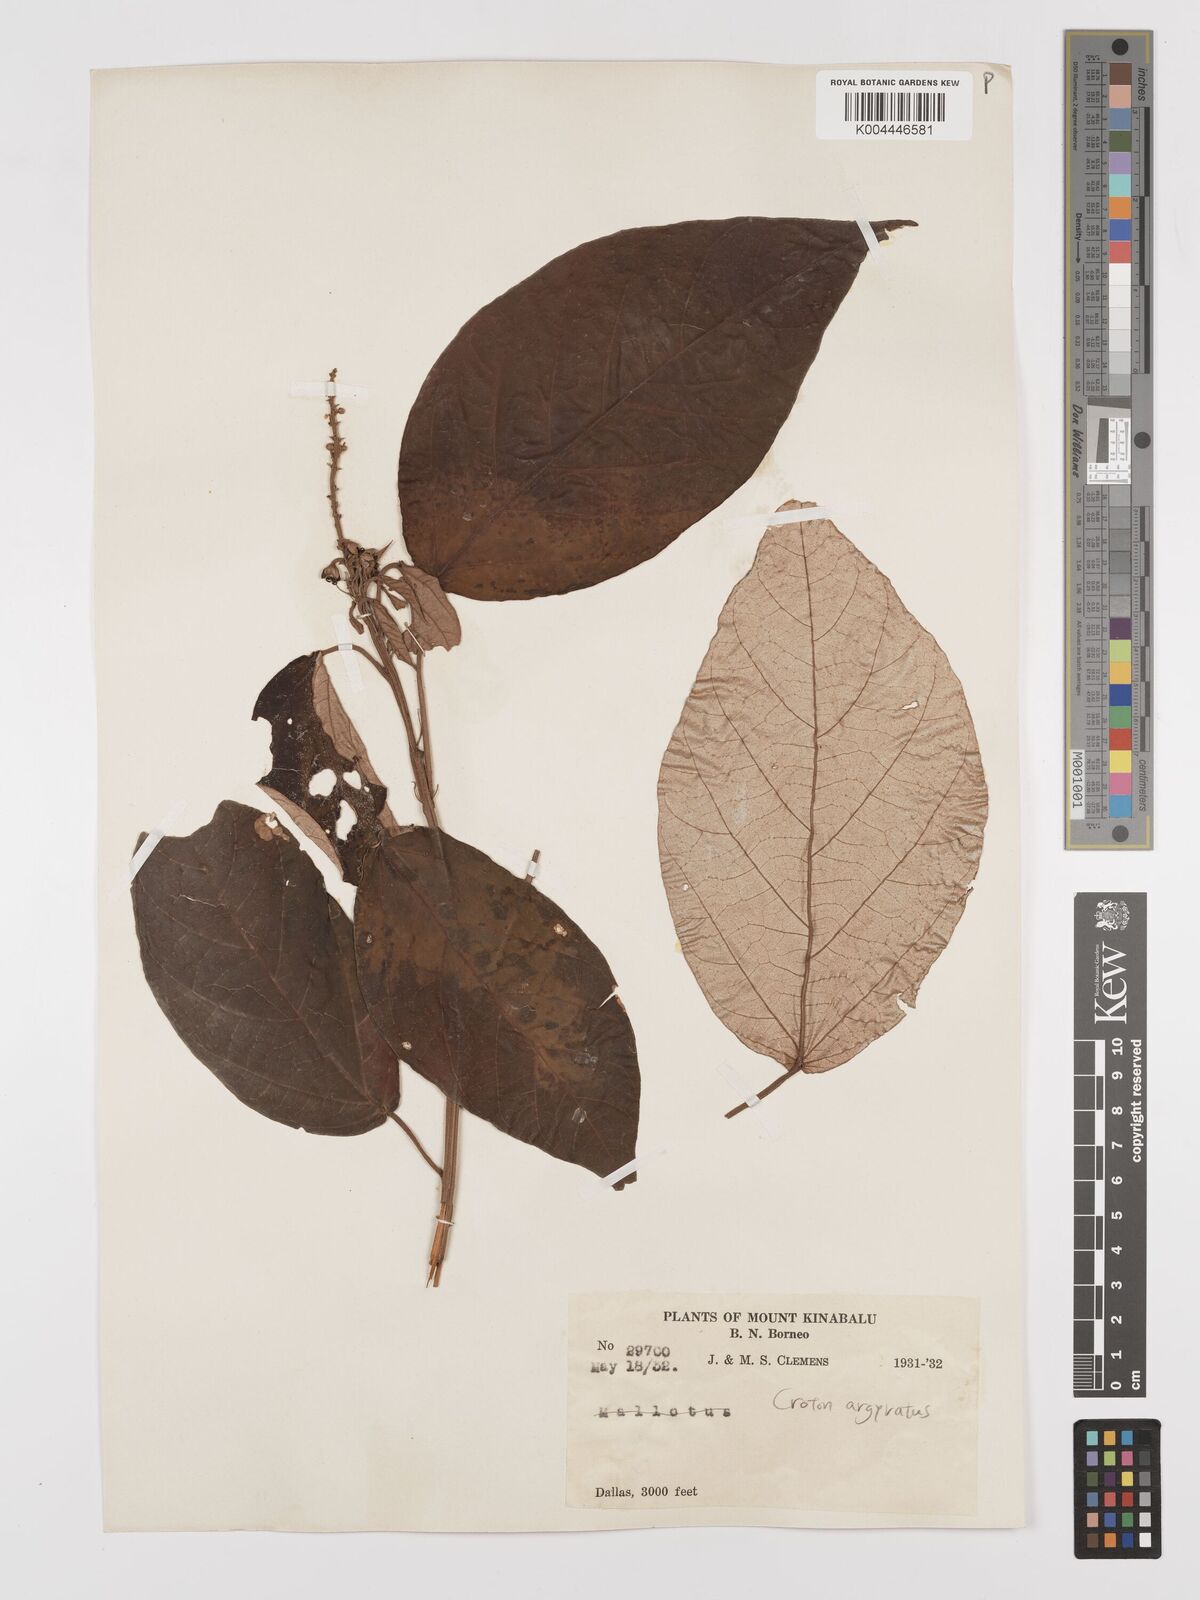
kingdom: Plantae
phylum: Tracheophyta
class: Magnoliopsida
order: Malpighiales
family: Euphorbiaceae
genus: Croton
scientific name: Croton argyratus
